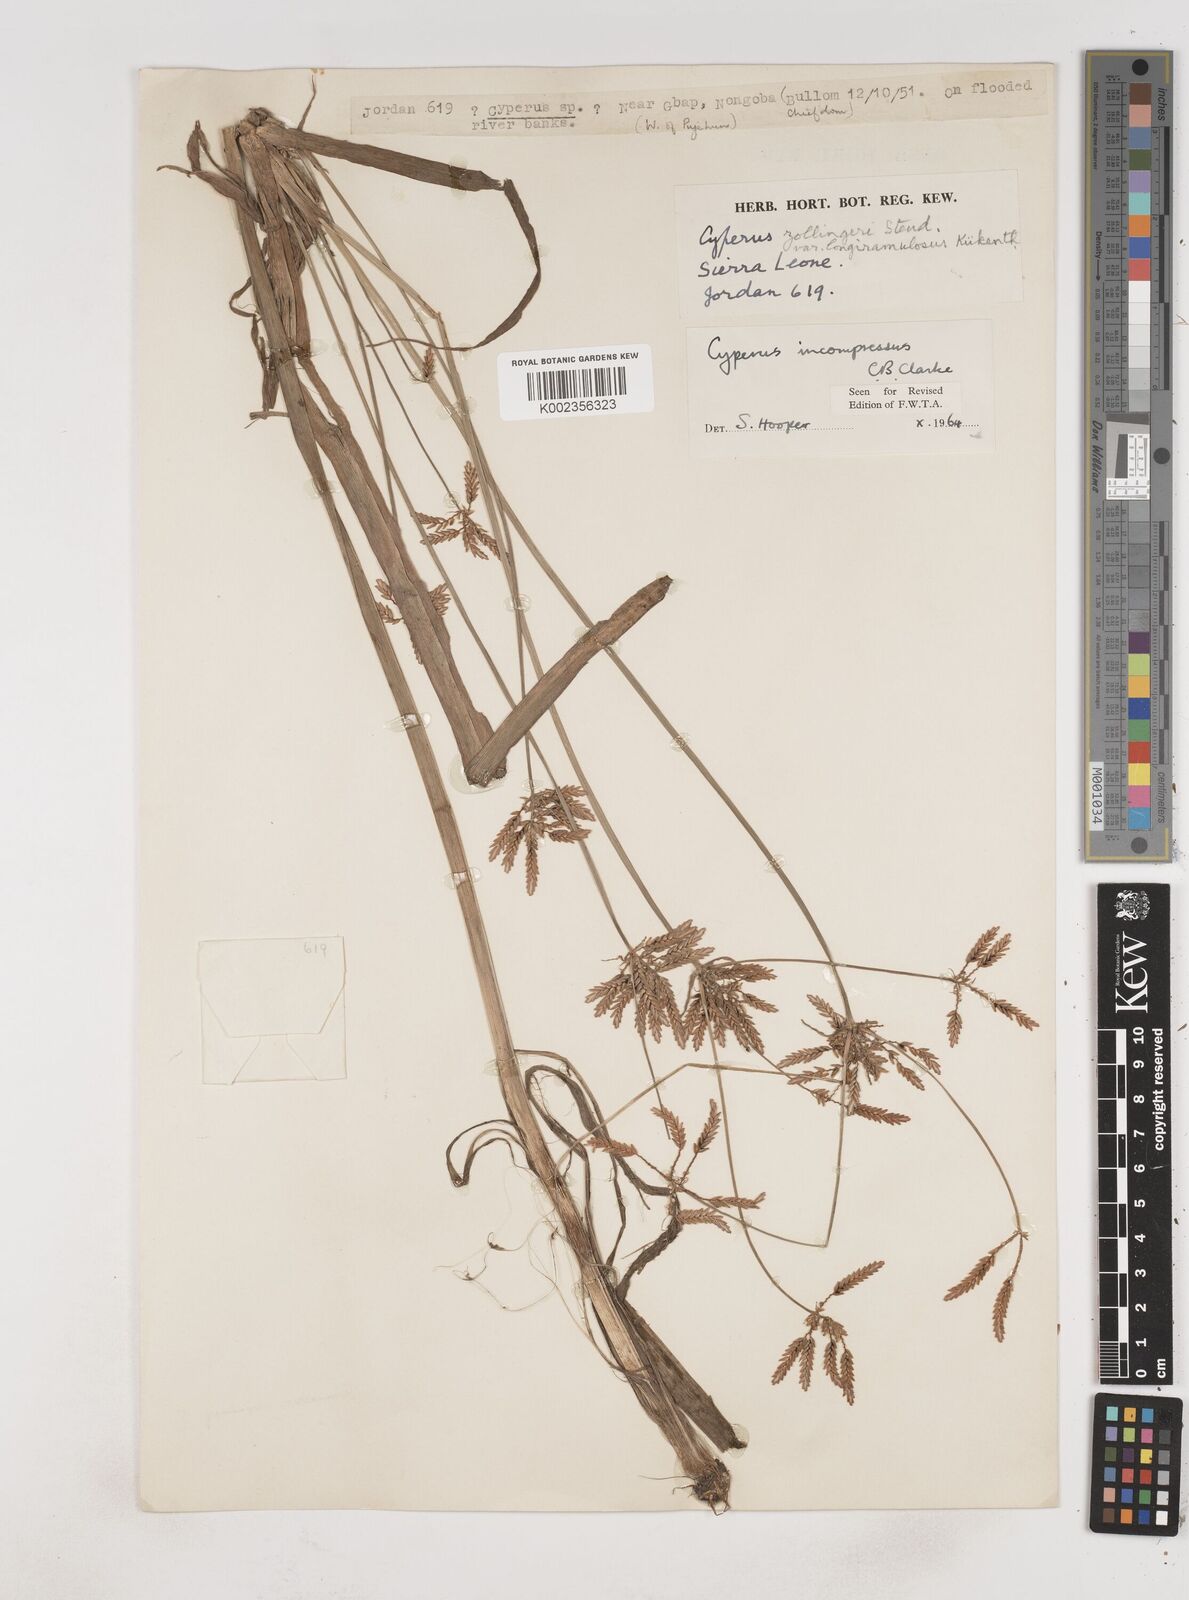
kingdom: Plantae
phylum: Tracheophyta
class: Liliopsida
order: Poales
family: Cyperaceae
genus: Cyperus
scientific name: Cyperus incompressus
